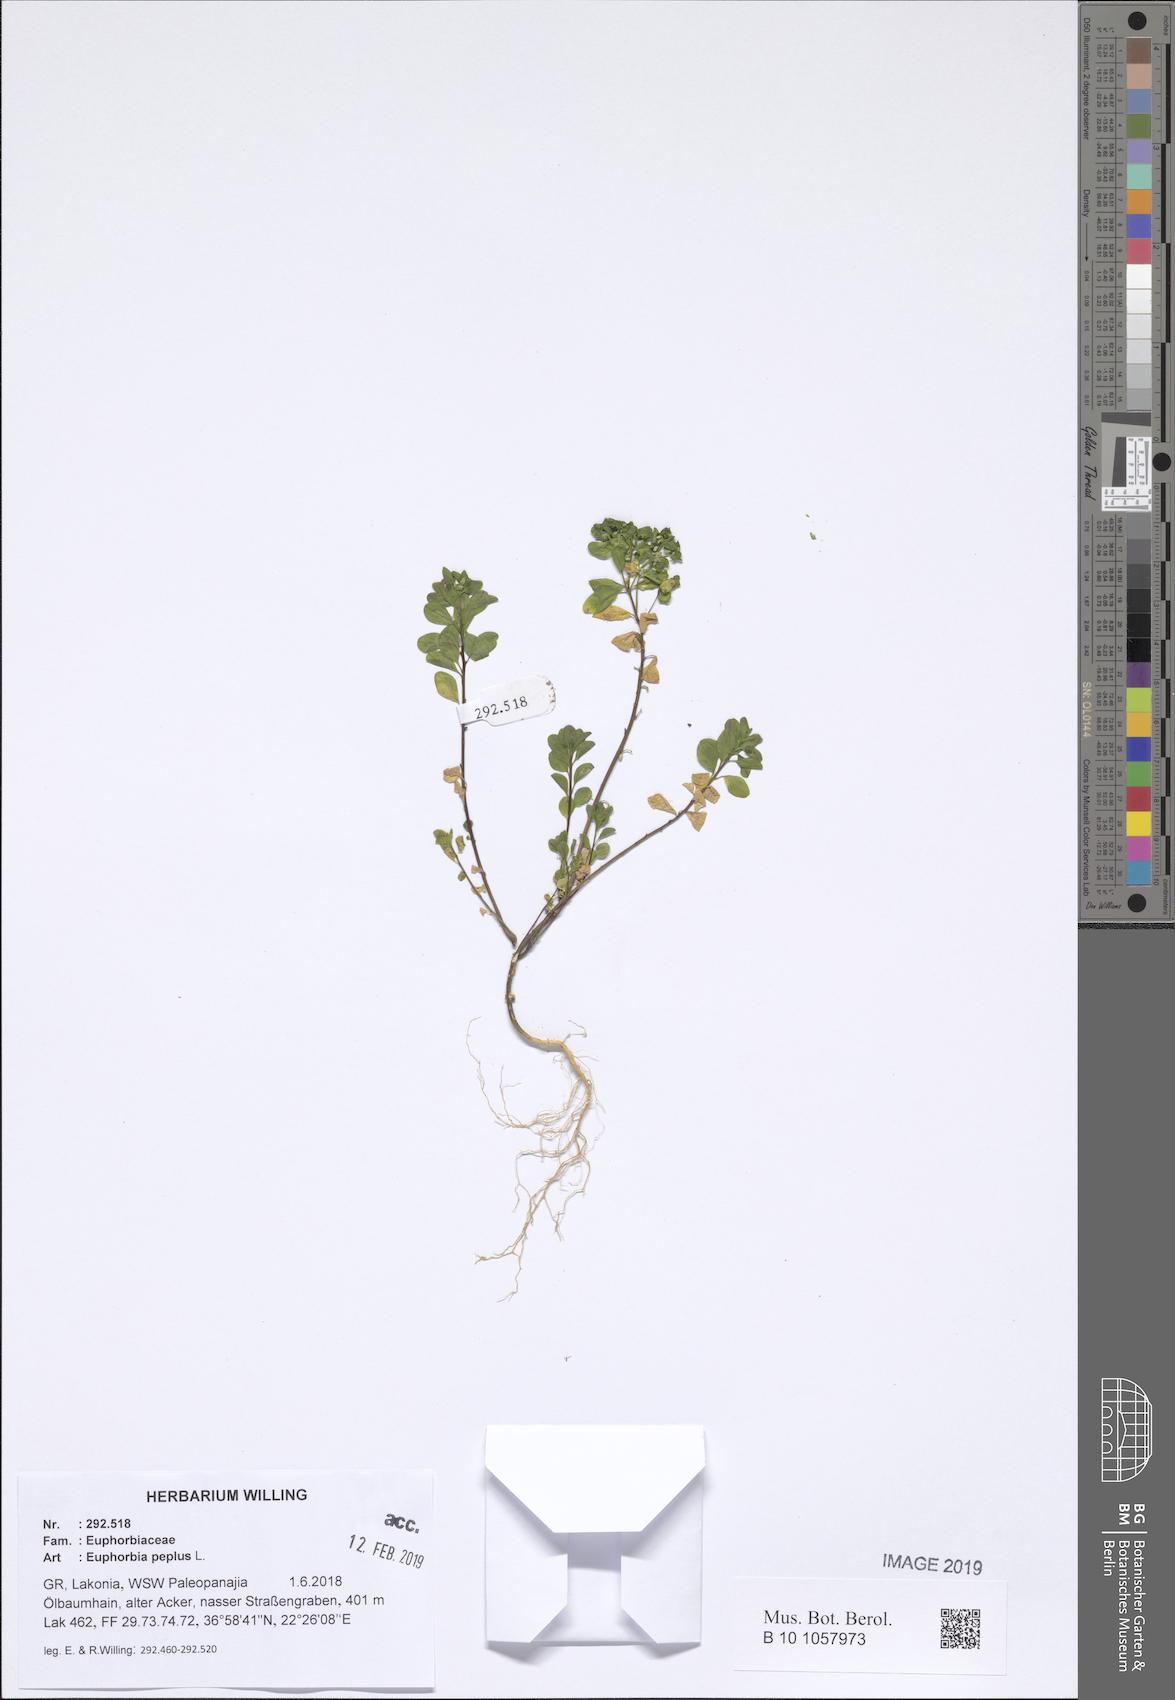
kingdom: Plantae
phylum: Tracheophyta
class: Magnoliopsida
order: Malpighiales
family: Euphorbiaceae
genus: Euphorbia
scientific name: Euphorbia peplus
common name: Petty spurge
